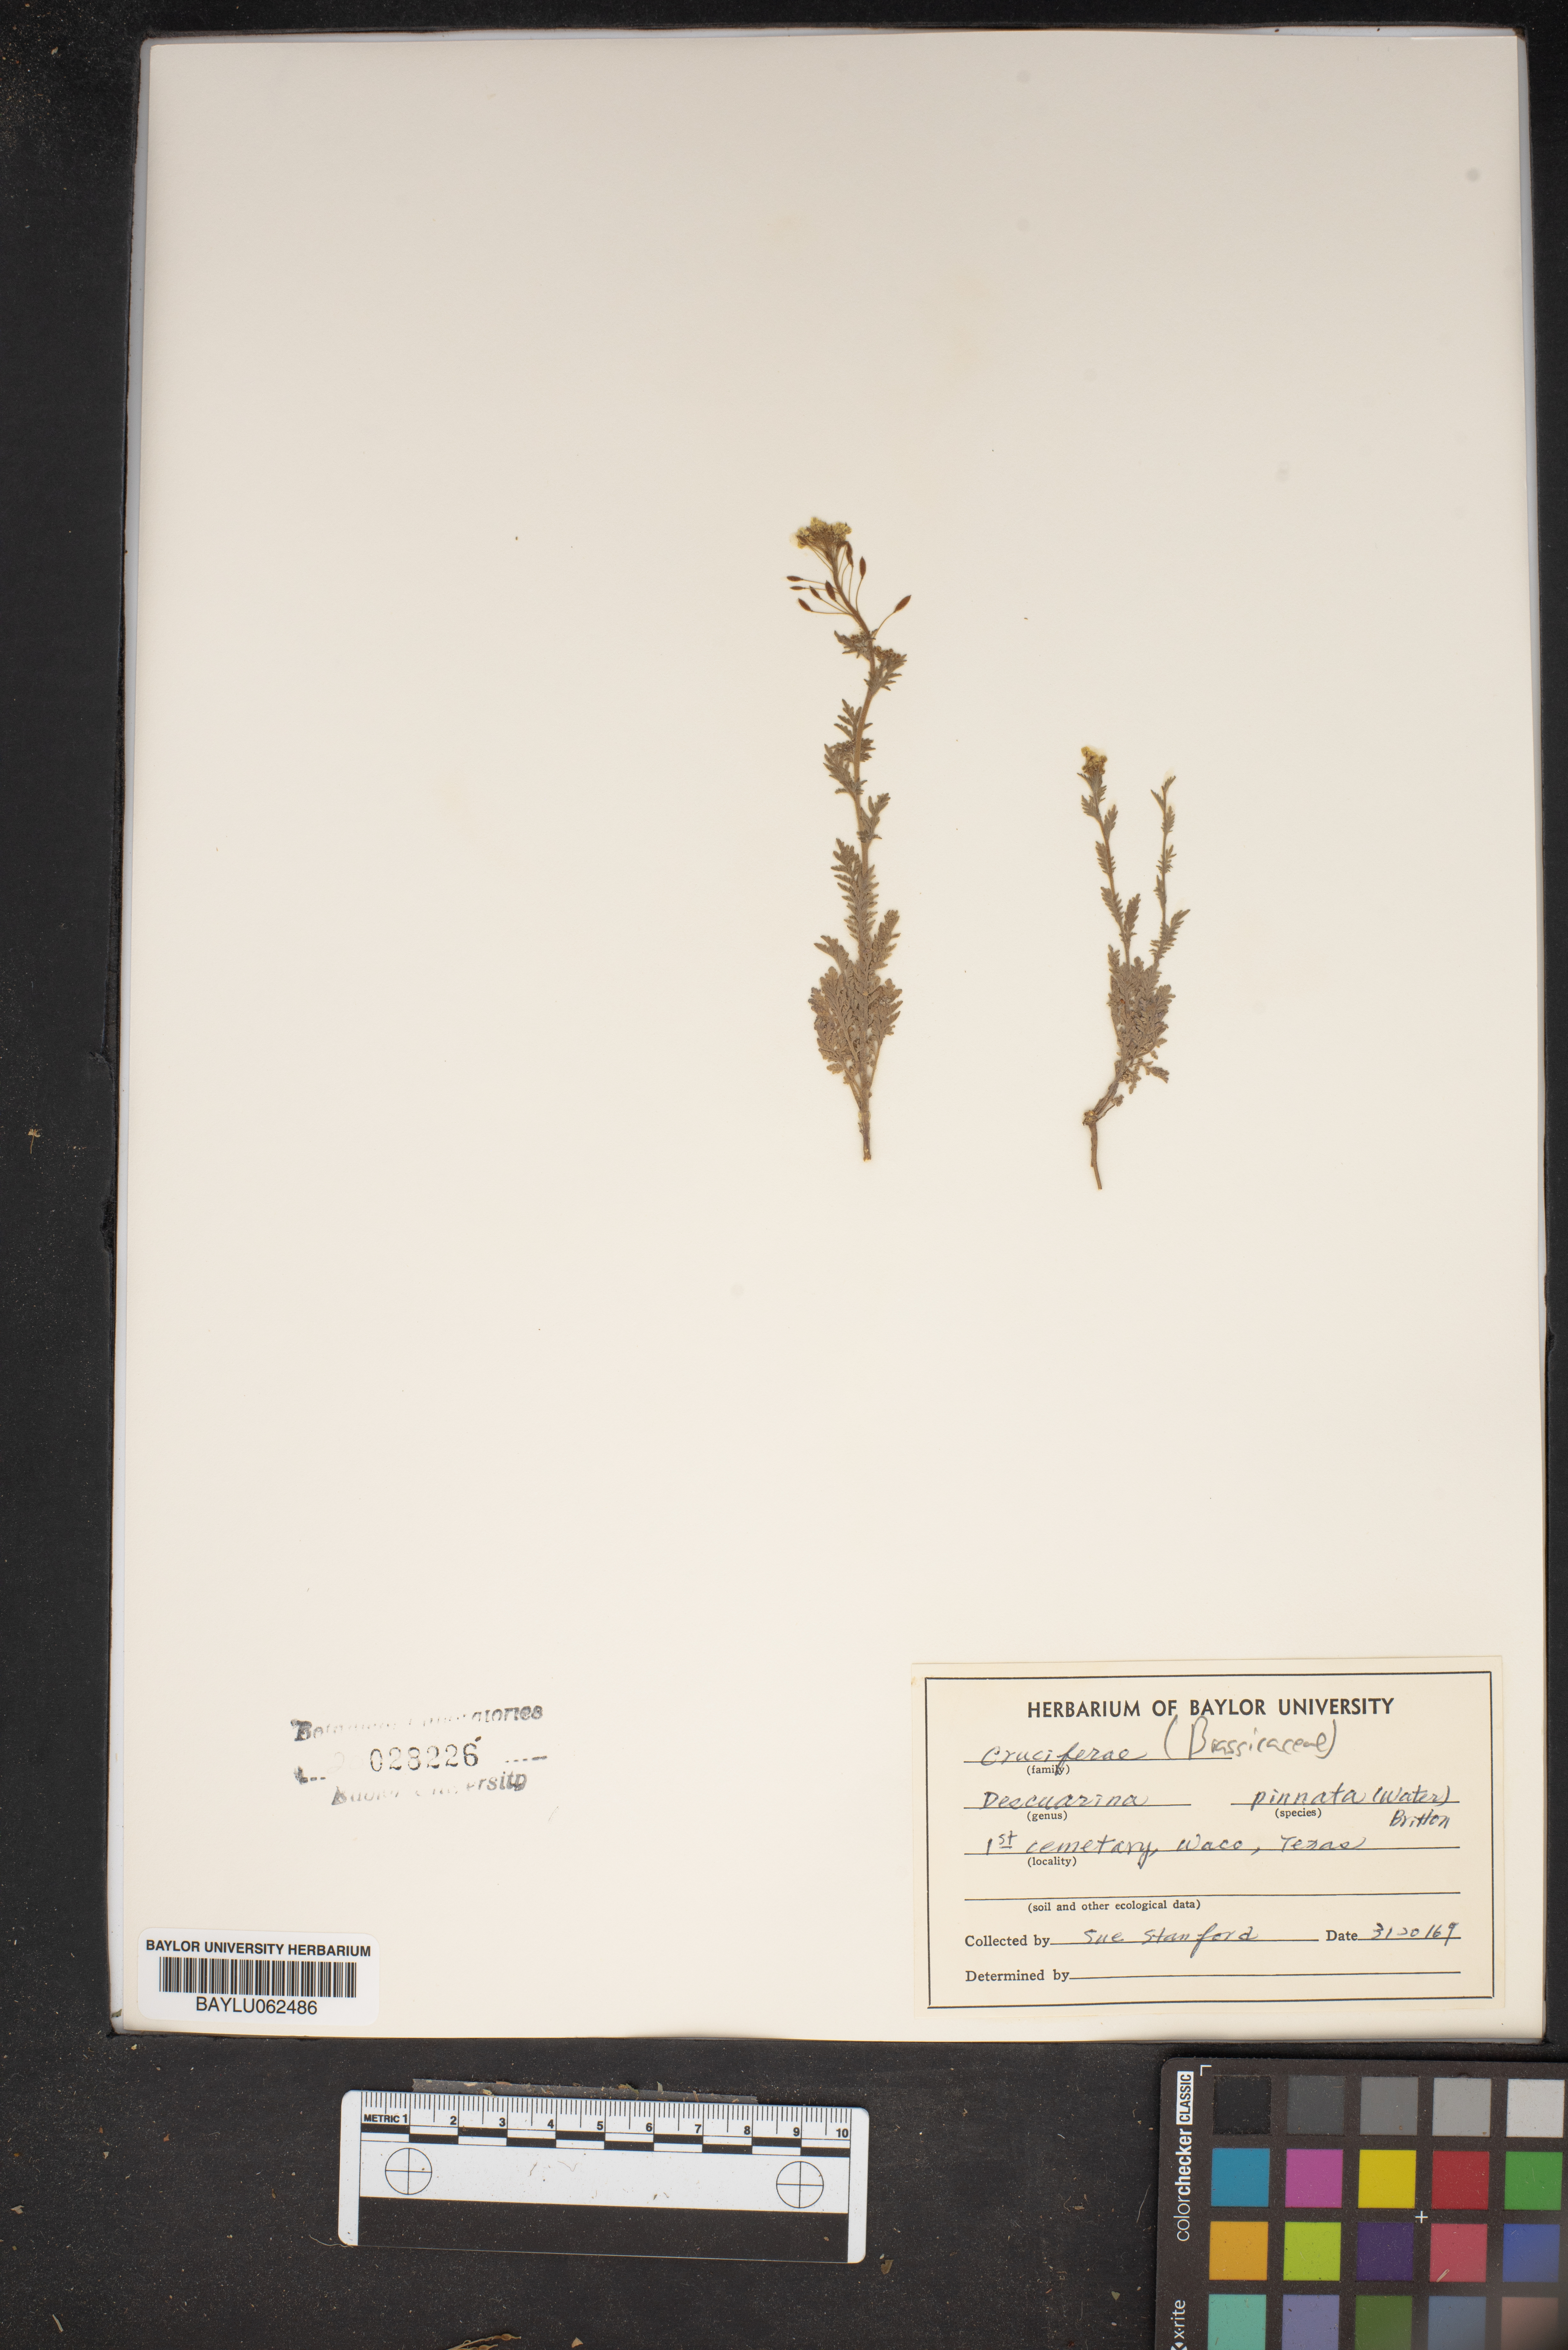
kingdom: Plantae
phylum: Tracheophyta
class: Magnoliopsida
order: Brassicales
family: Brassicaceae
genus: Descurainia
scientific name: Descurainia pinnata
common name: Western tansy mustard
